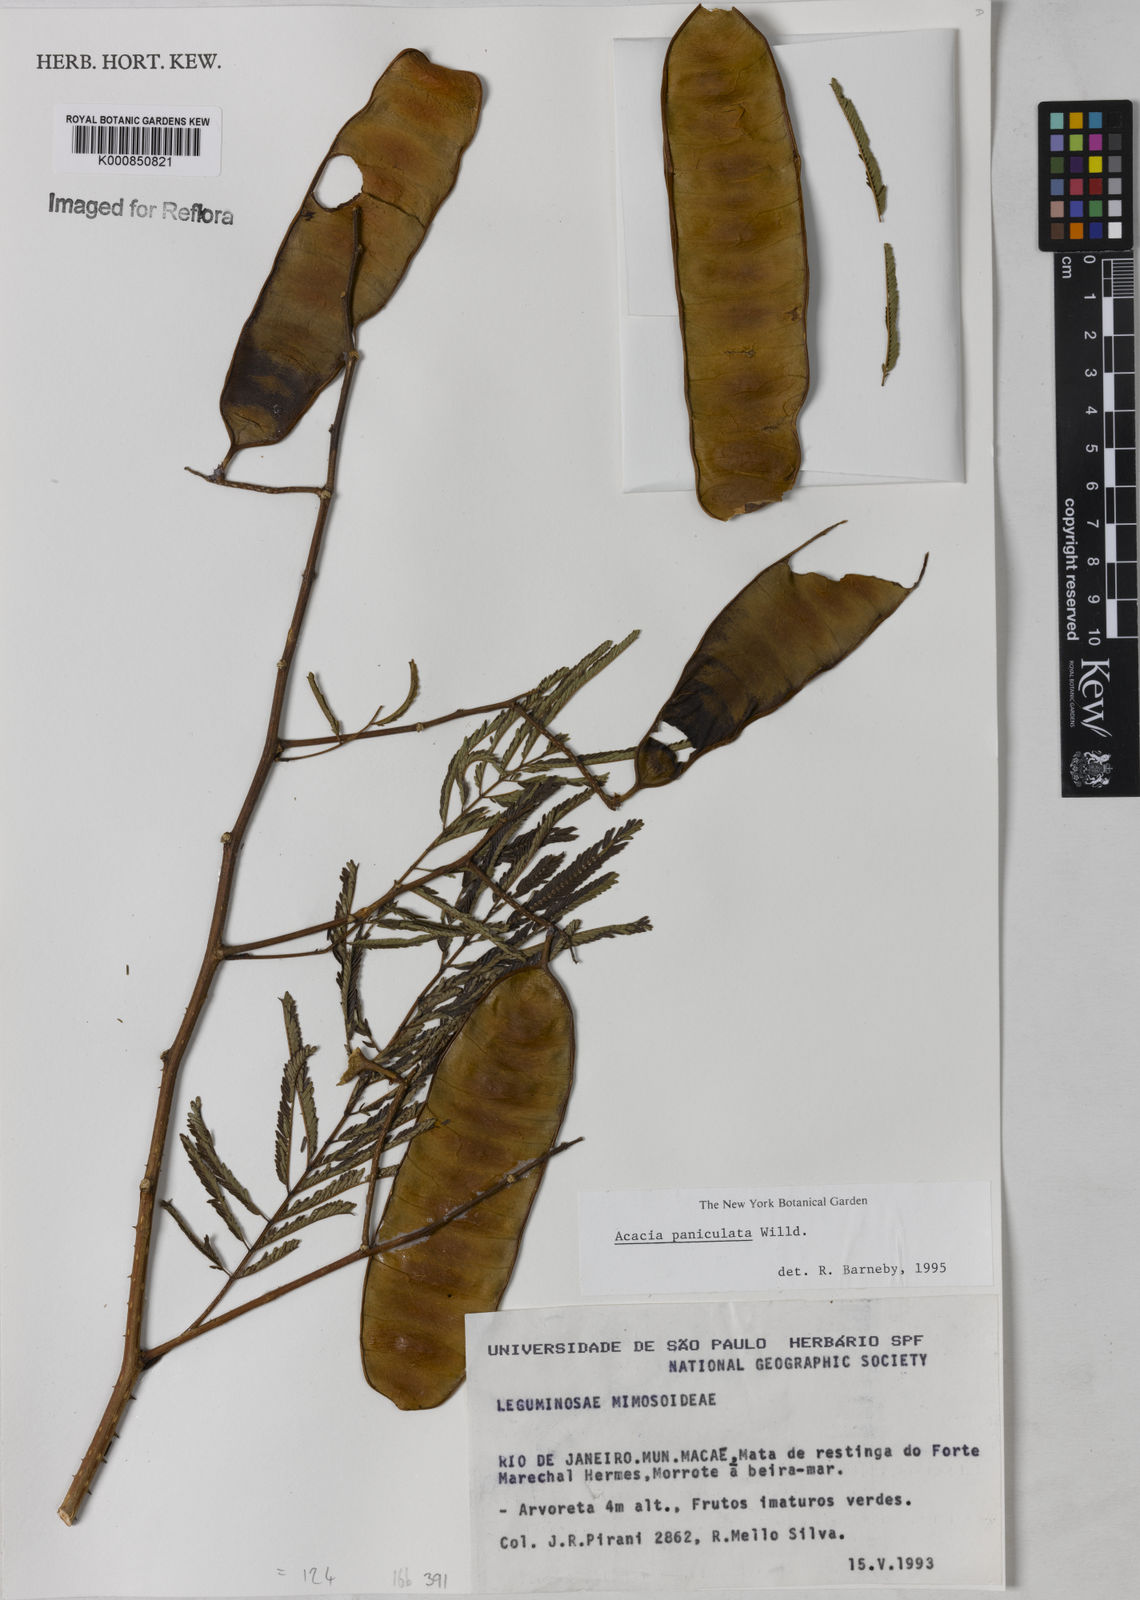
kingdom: Plantae
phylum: Tracheophyta
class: Magnoliopsida
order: Fabales
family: Fabaceae
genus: Senegalia
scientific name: Senegalia tenuifolia
